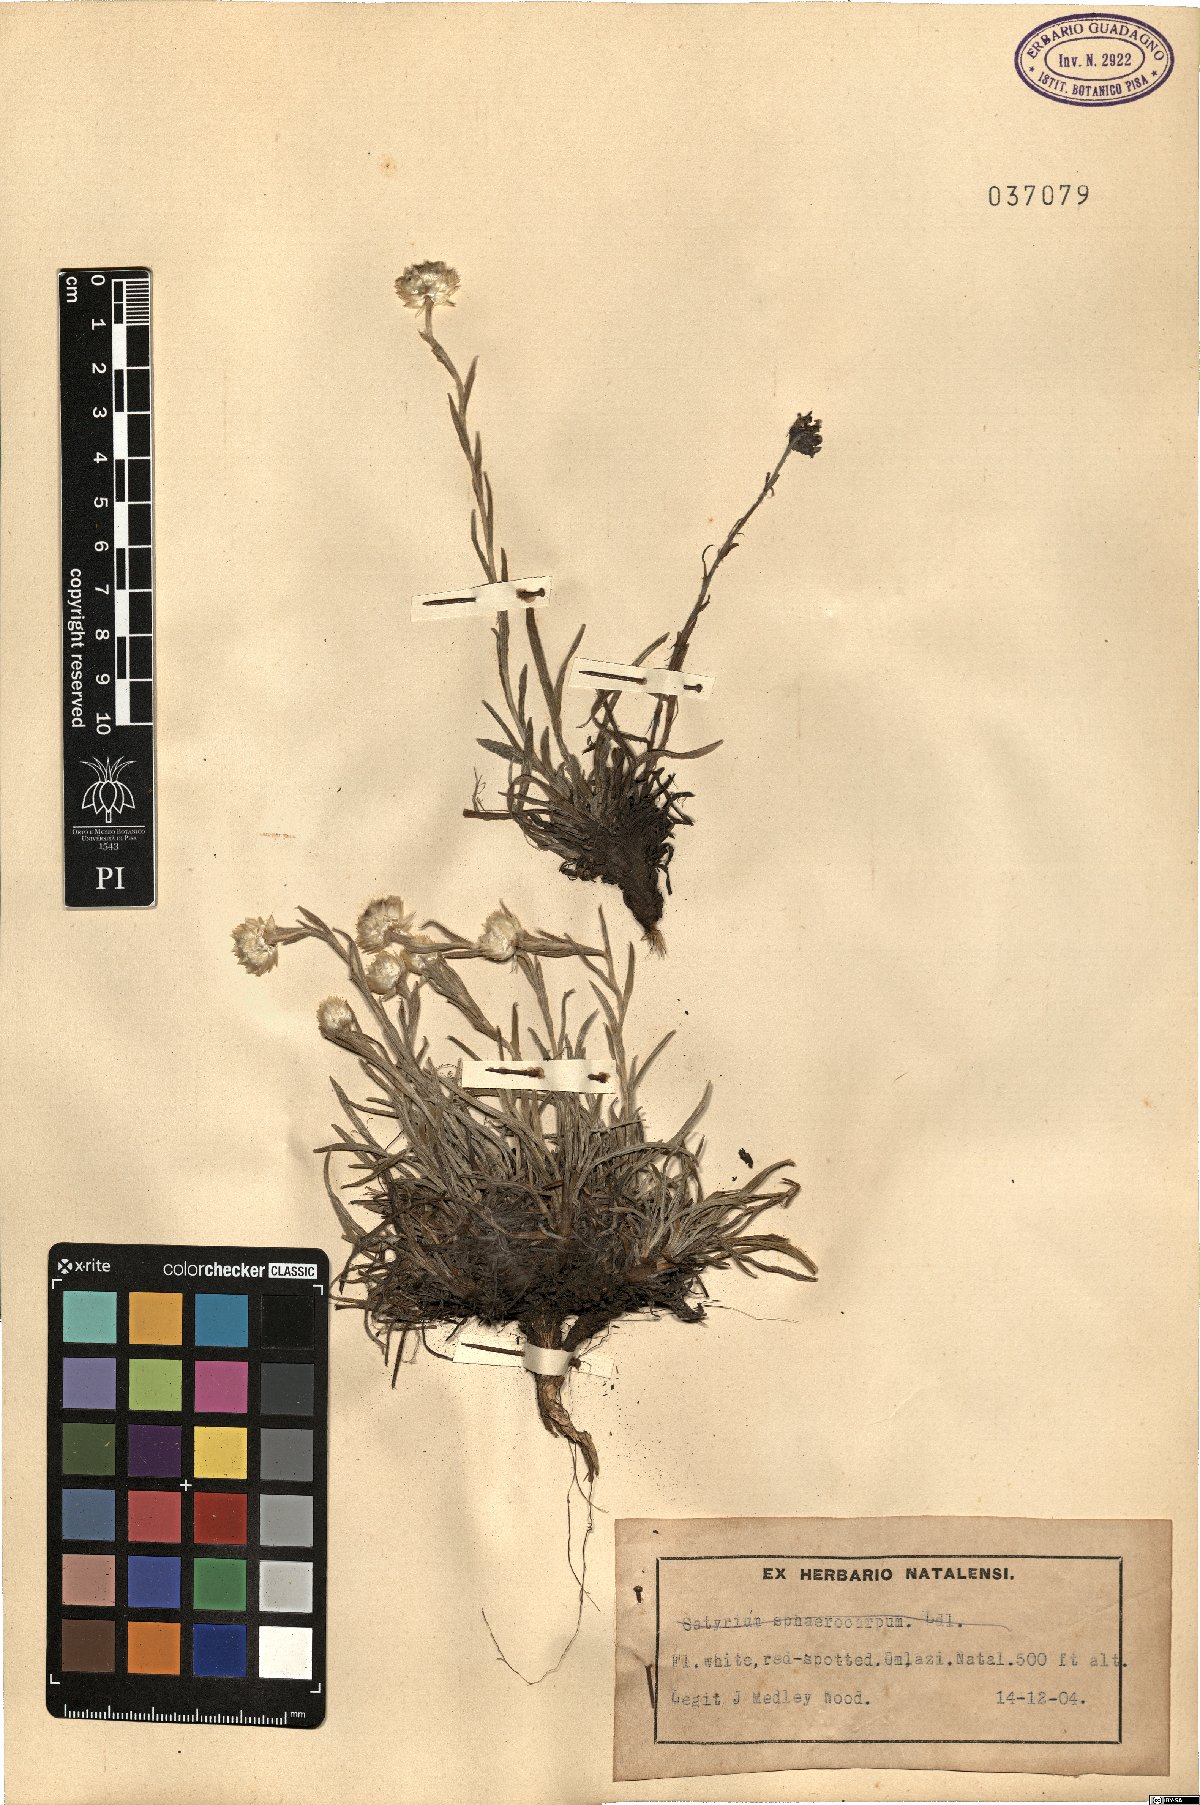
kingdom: Plantae
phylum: Tracheophyta
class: Magnoliopsida
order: Asterales
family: Asteraceae
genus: Helichrysum
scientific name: Helichrysum
